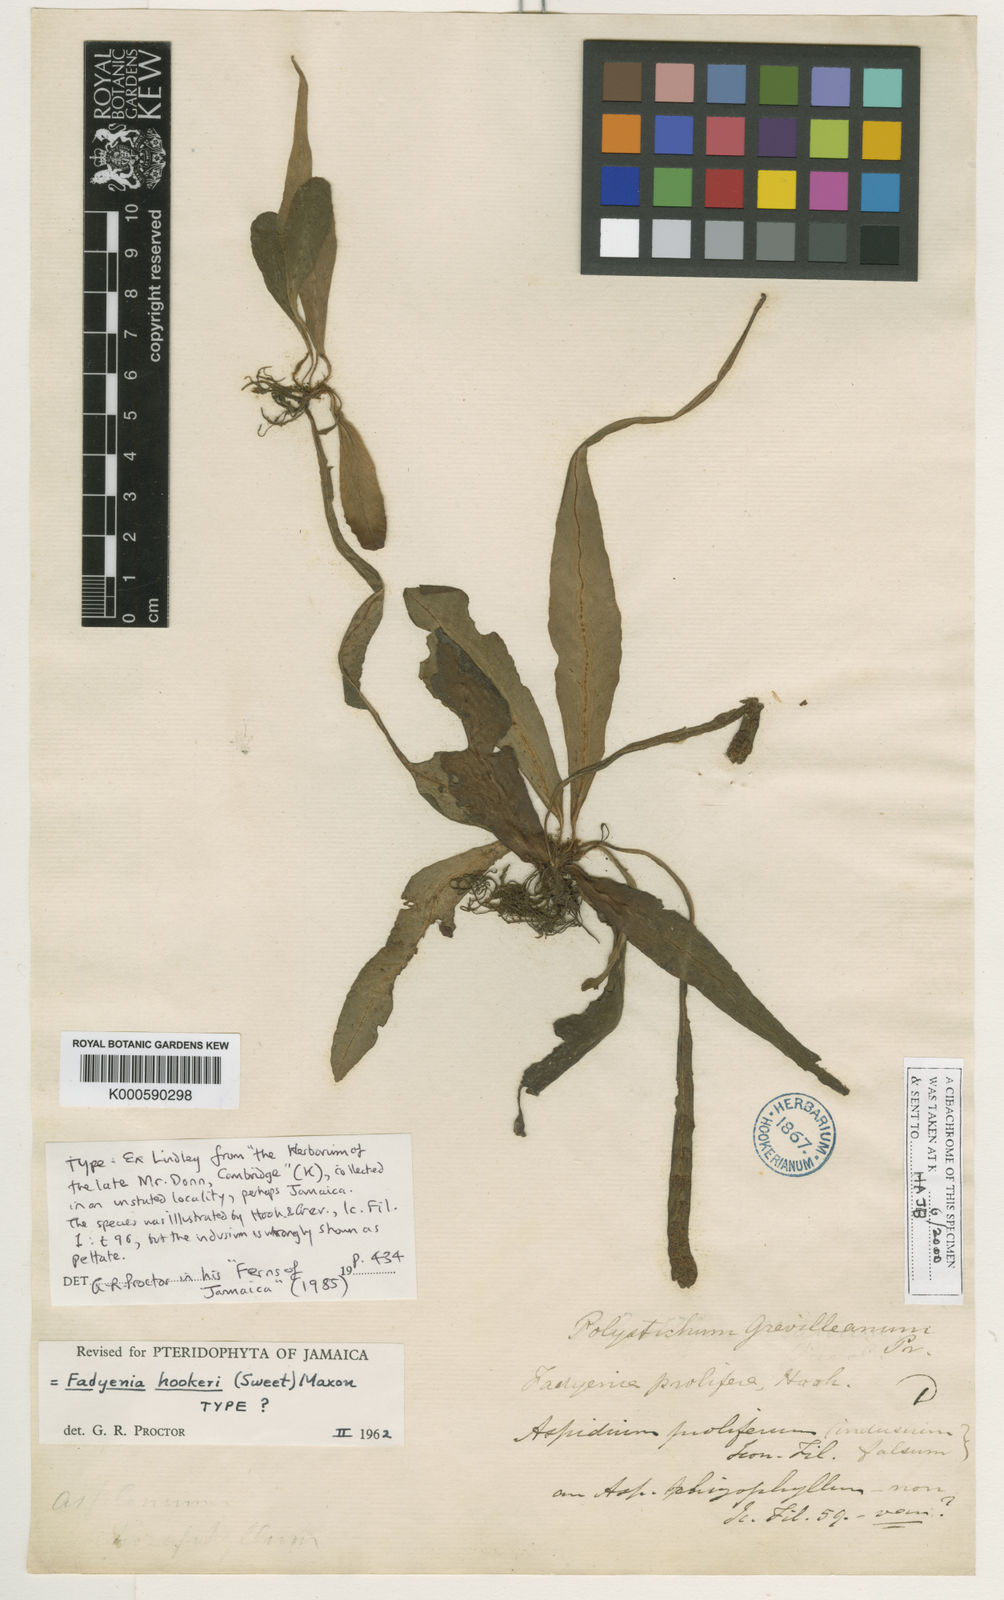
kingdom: Plantae
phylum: Tracheophyta
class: Polypodiopsida
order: Polypodiales
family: Tectariaceae
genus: Tectaria
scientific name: Tectaria prolifera
